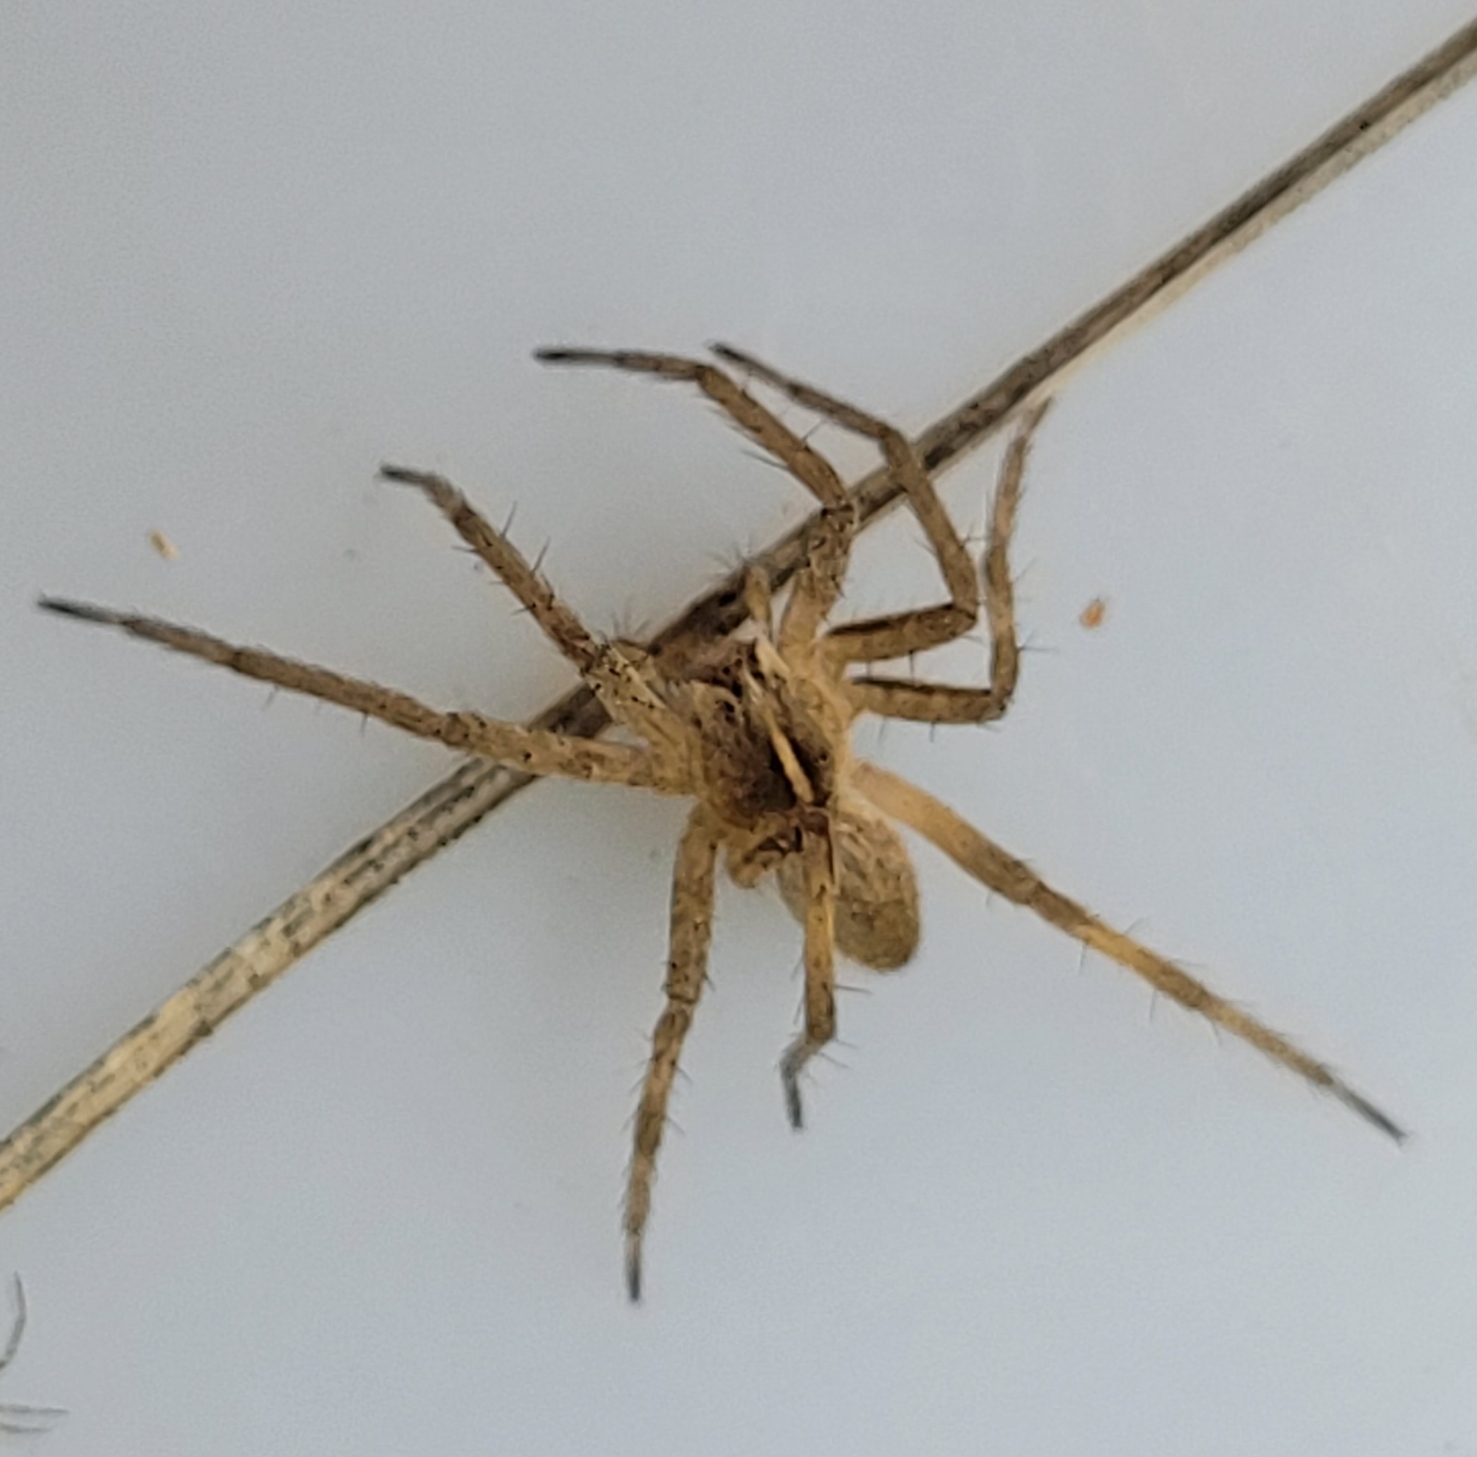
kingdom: Animalia
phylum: Arthropoda
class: Arachnida
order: Araneae
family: Pisauridae
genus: Pisaura
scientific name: Pisaura mirabilis
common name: Almindelig rovedderkop
